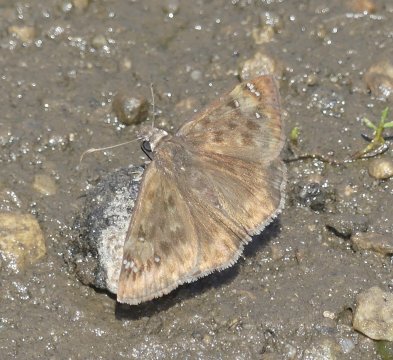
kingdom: Animalia
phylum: Arthropoda
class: Insecta
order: Lepidoptera
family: Hesperiidae
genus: Gesta
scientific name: Gesta
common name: Horace's Duskywing
